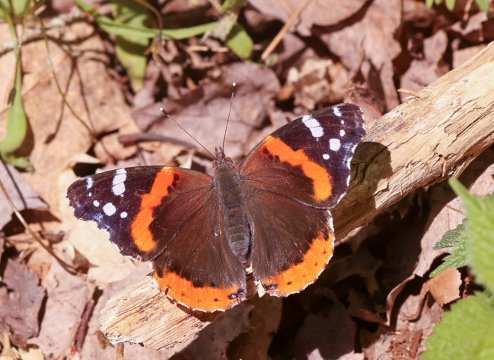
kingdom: Animalia
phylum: Arthropoda
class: Insecta
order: Lepidoptera
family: Nymphalidae
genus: Vanessa
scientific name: Vanessa atalanta
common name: Red Admiral
